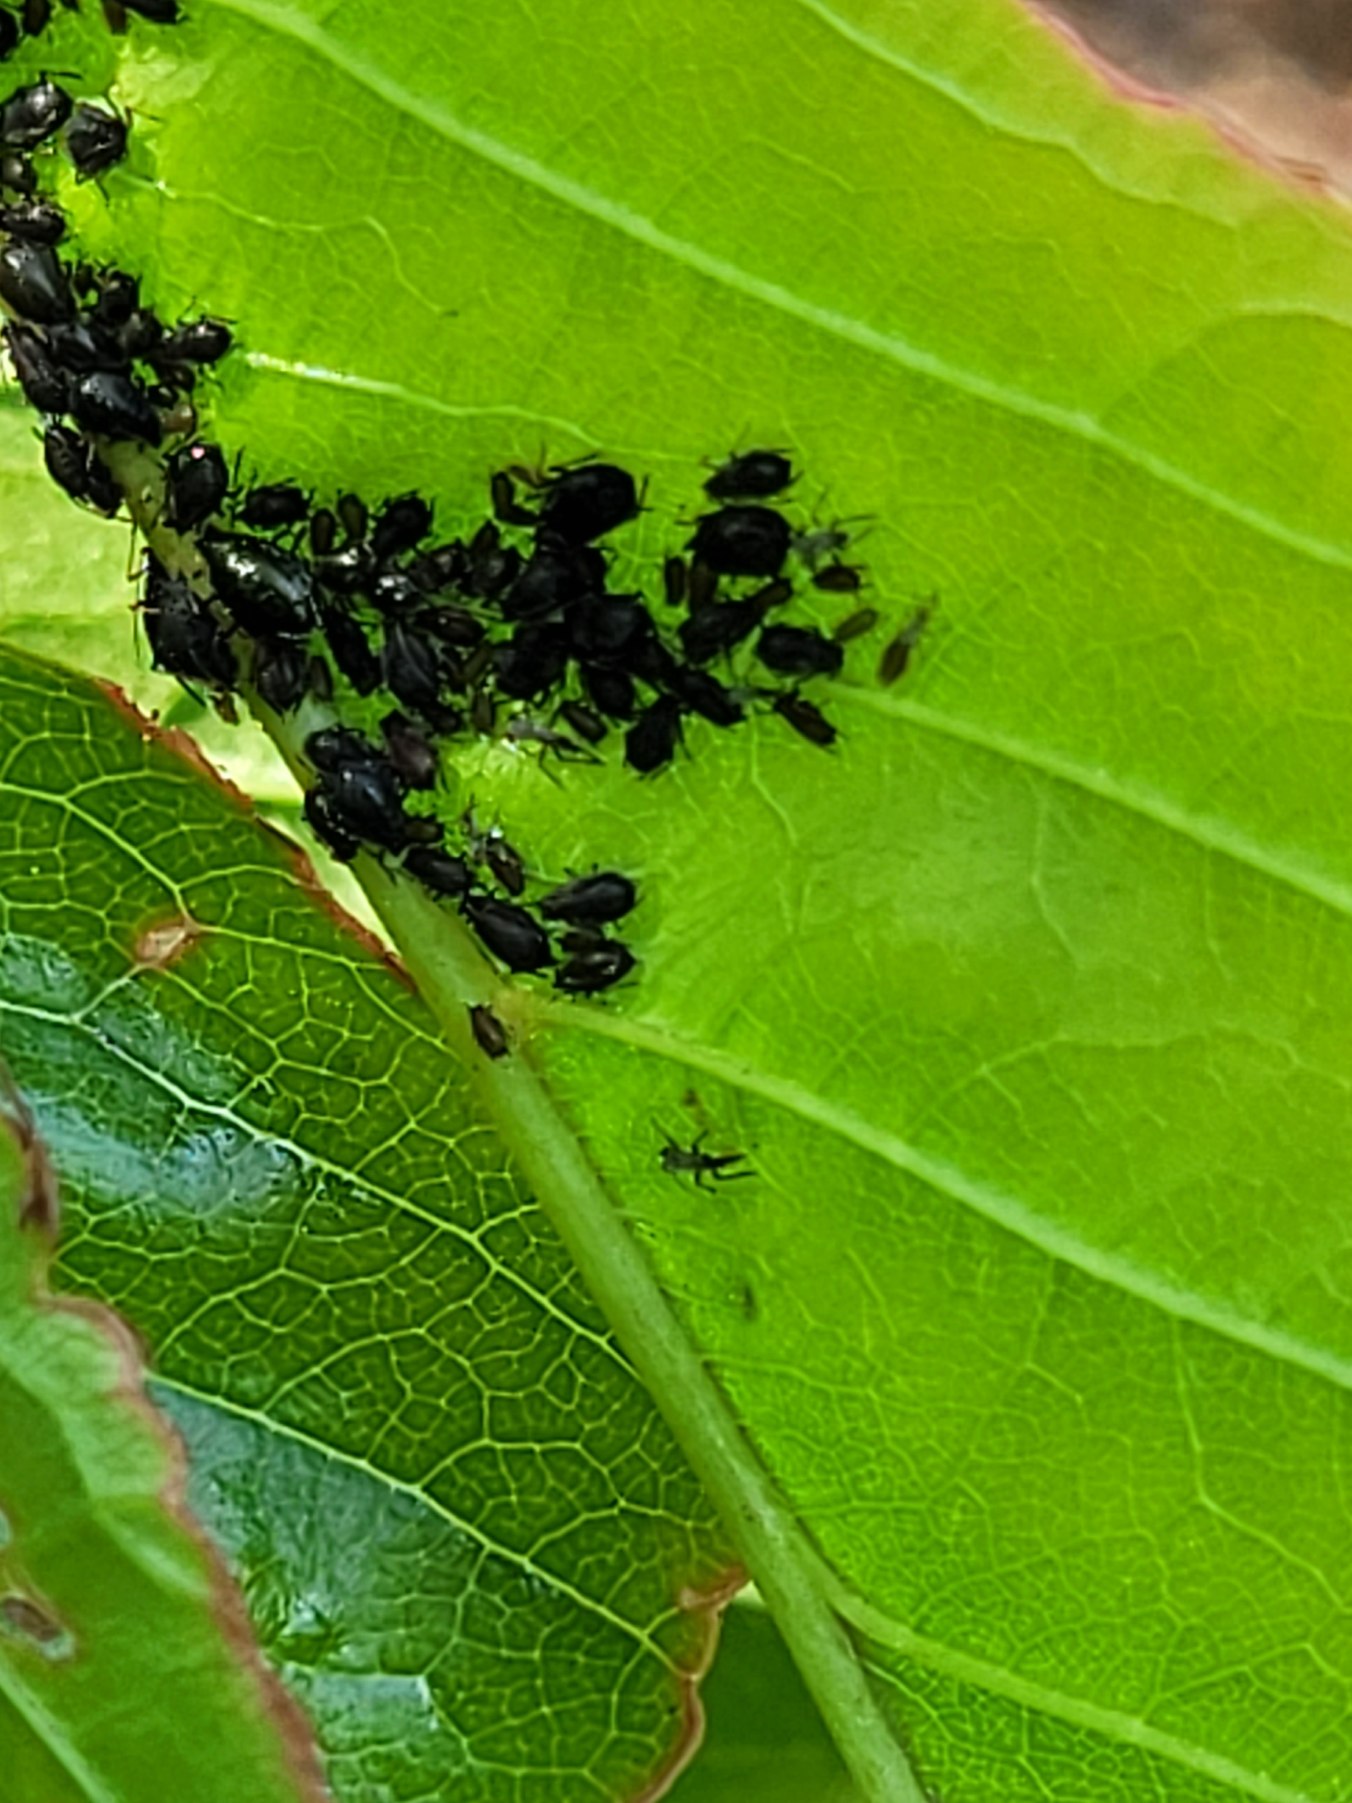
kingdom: Animalia
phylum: Arthropoda
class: Insecta
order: Hemiptera
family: Aphididae
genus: Myzus
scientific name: Myzus cerasi
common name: Kirsebærbladlus
